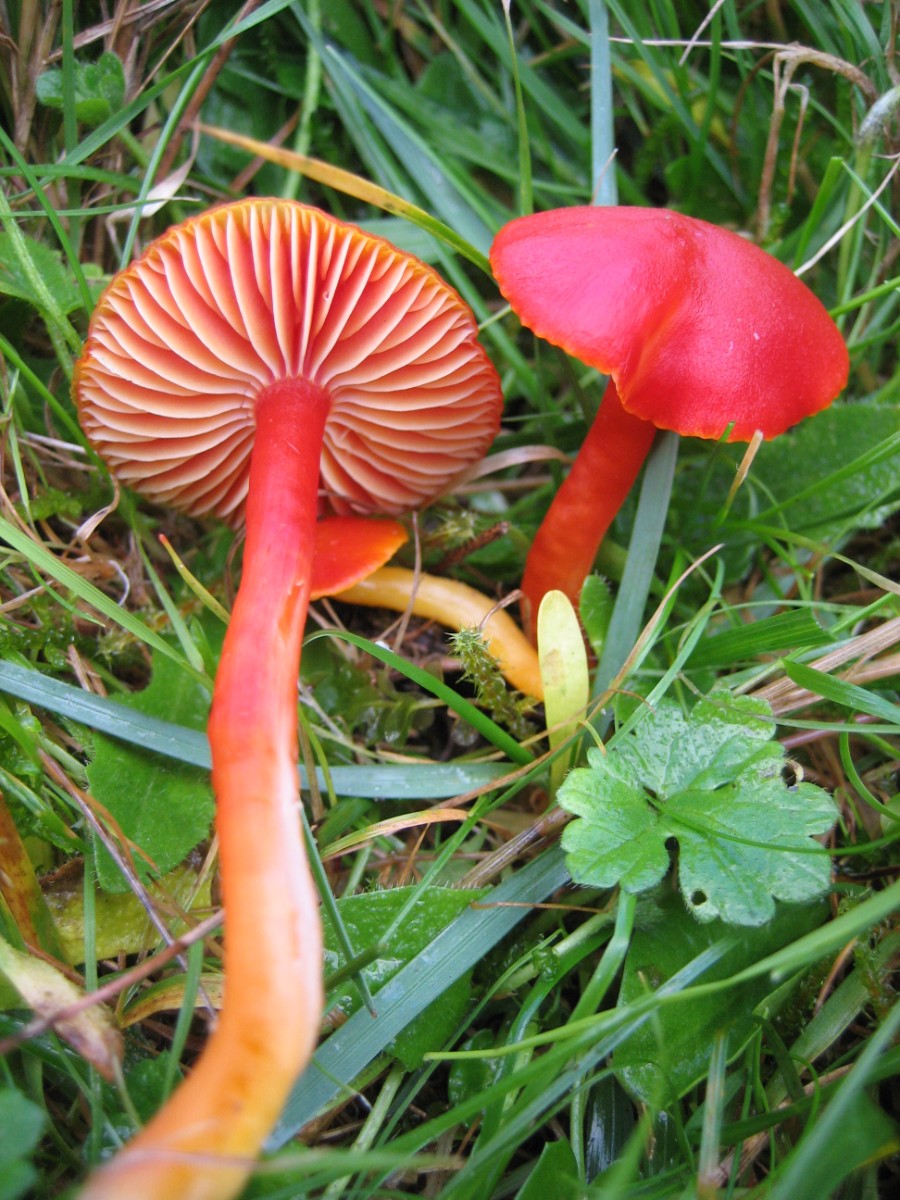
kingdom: Fungi
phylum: Basidiomycota
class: Agaricomycetes
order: Agaricales
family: Hygrophoraceae
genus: Hygrocybe
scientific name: Hygrocybe coccinea
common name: cinnober-vokshat
